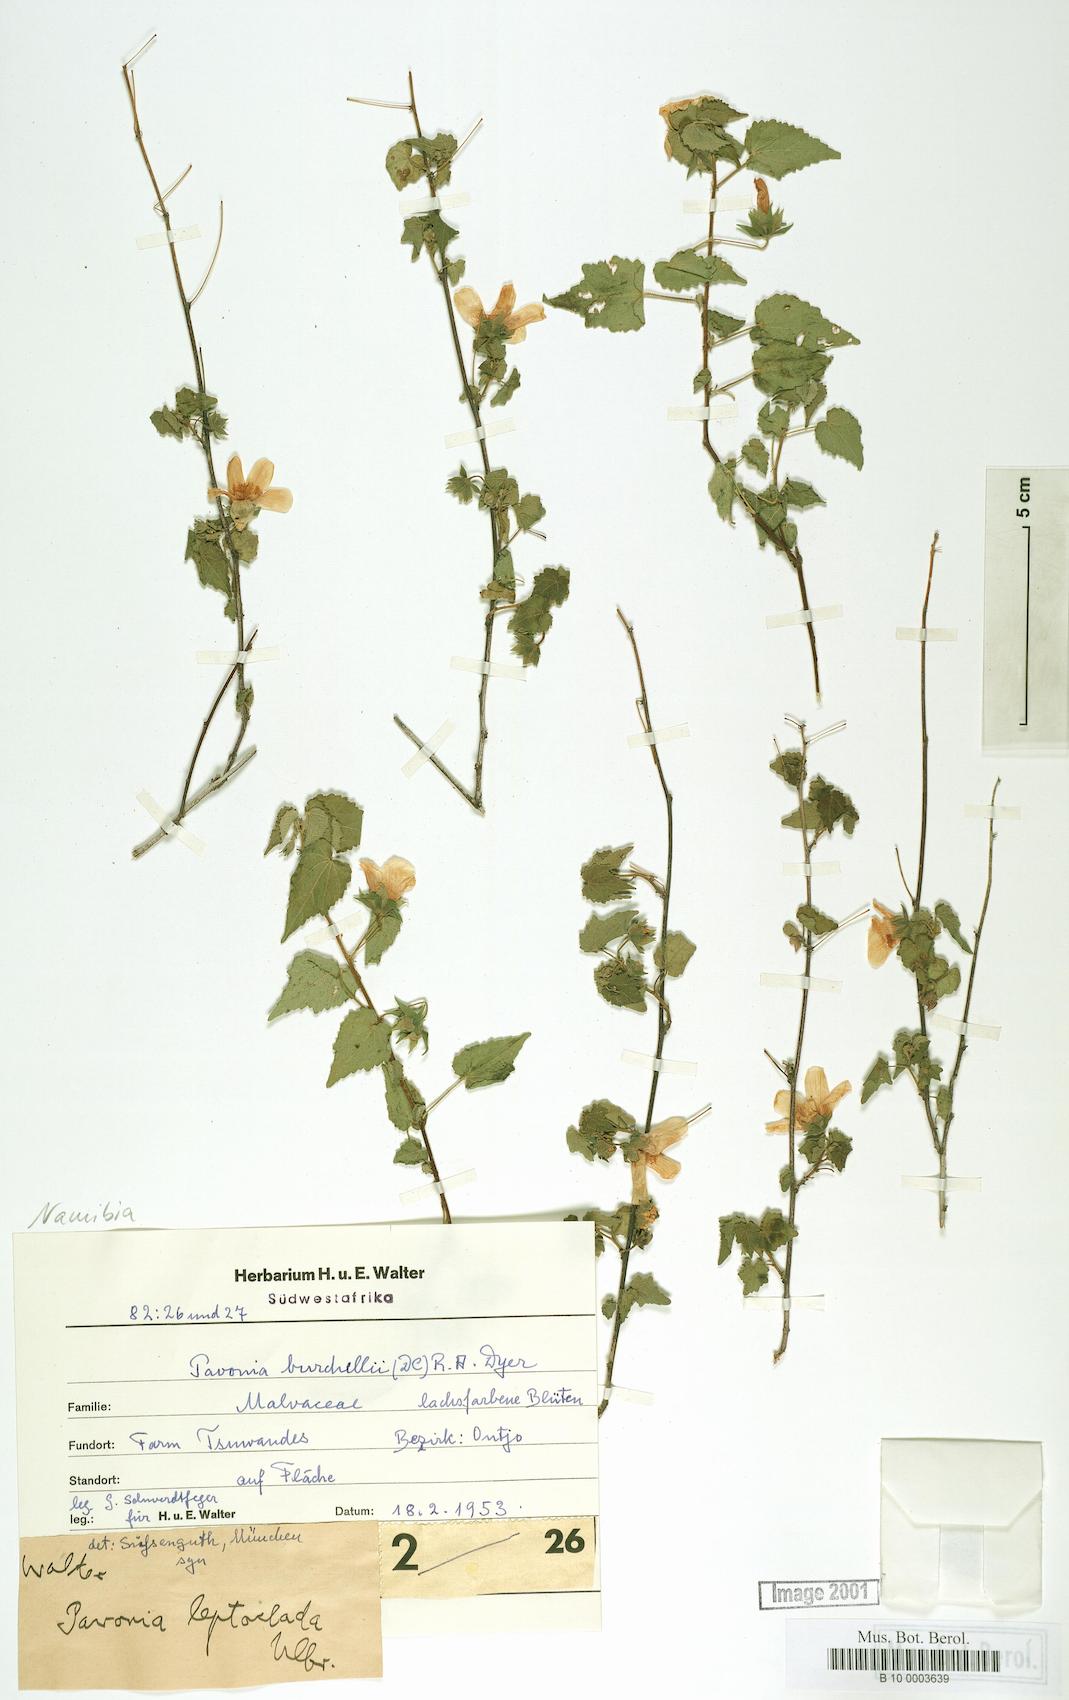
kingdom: Plantae
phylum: Tracheophyta
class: Magnoliopsida
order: Malvales
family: Malvaceae
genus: Pavonia
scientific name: Pavonia burchellii
